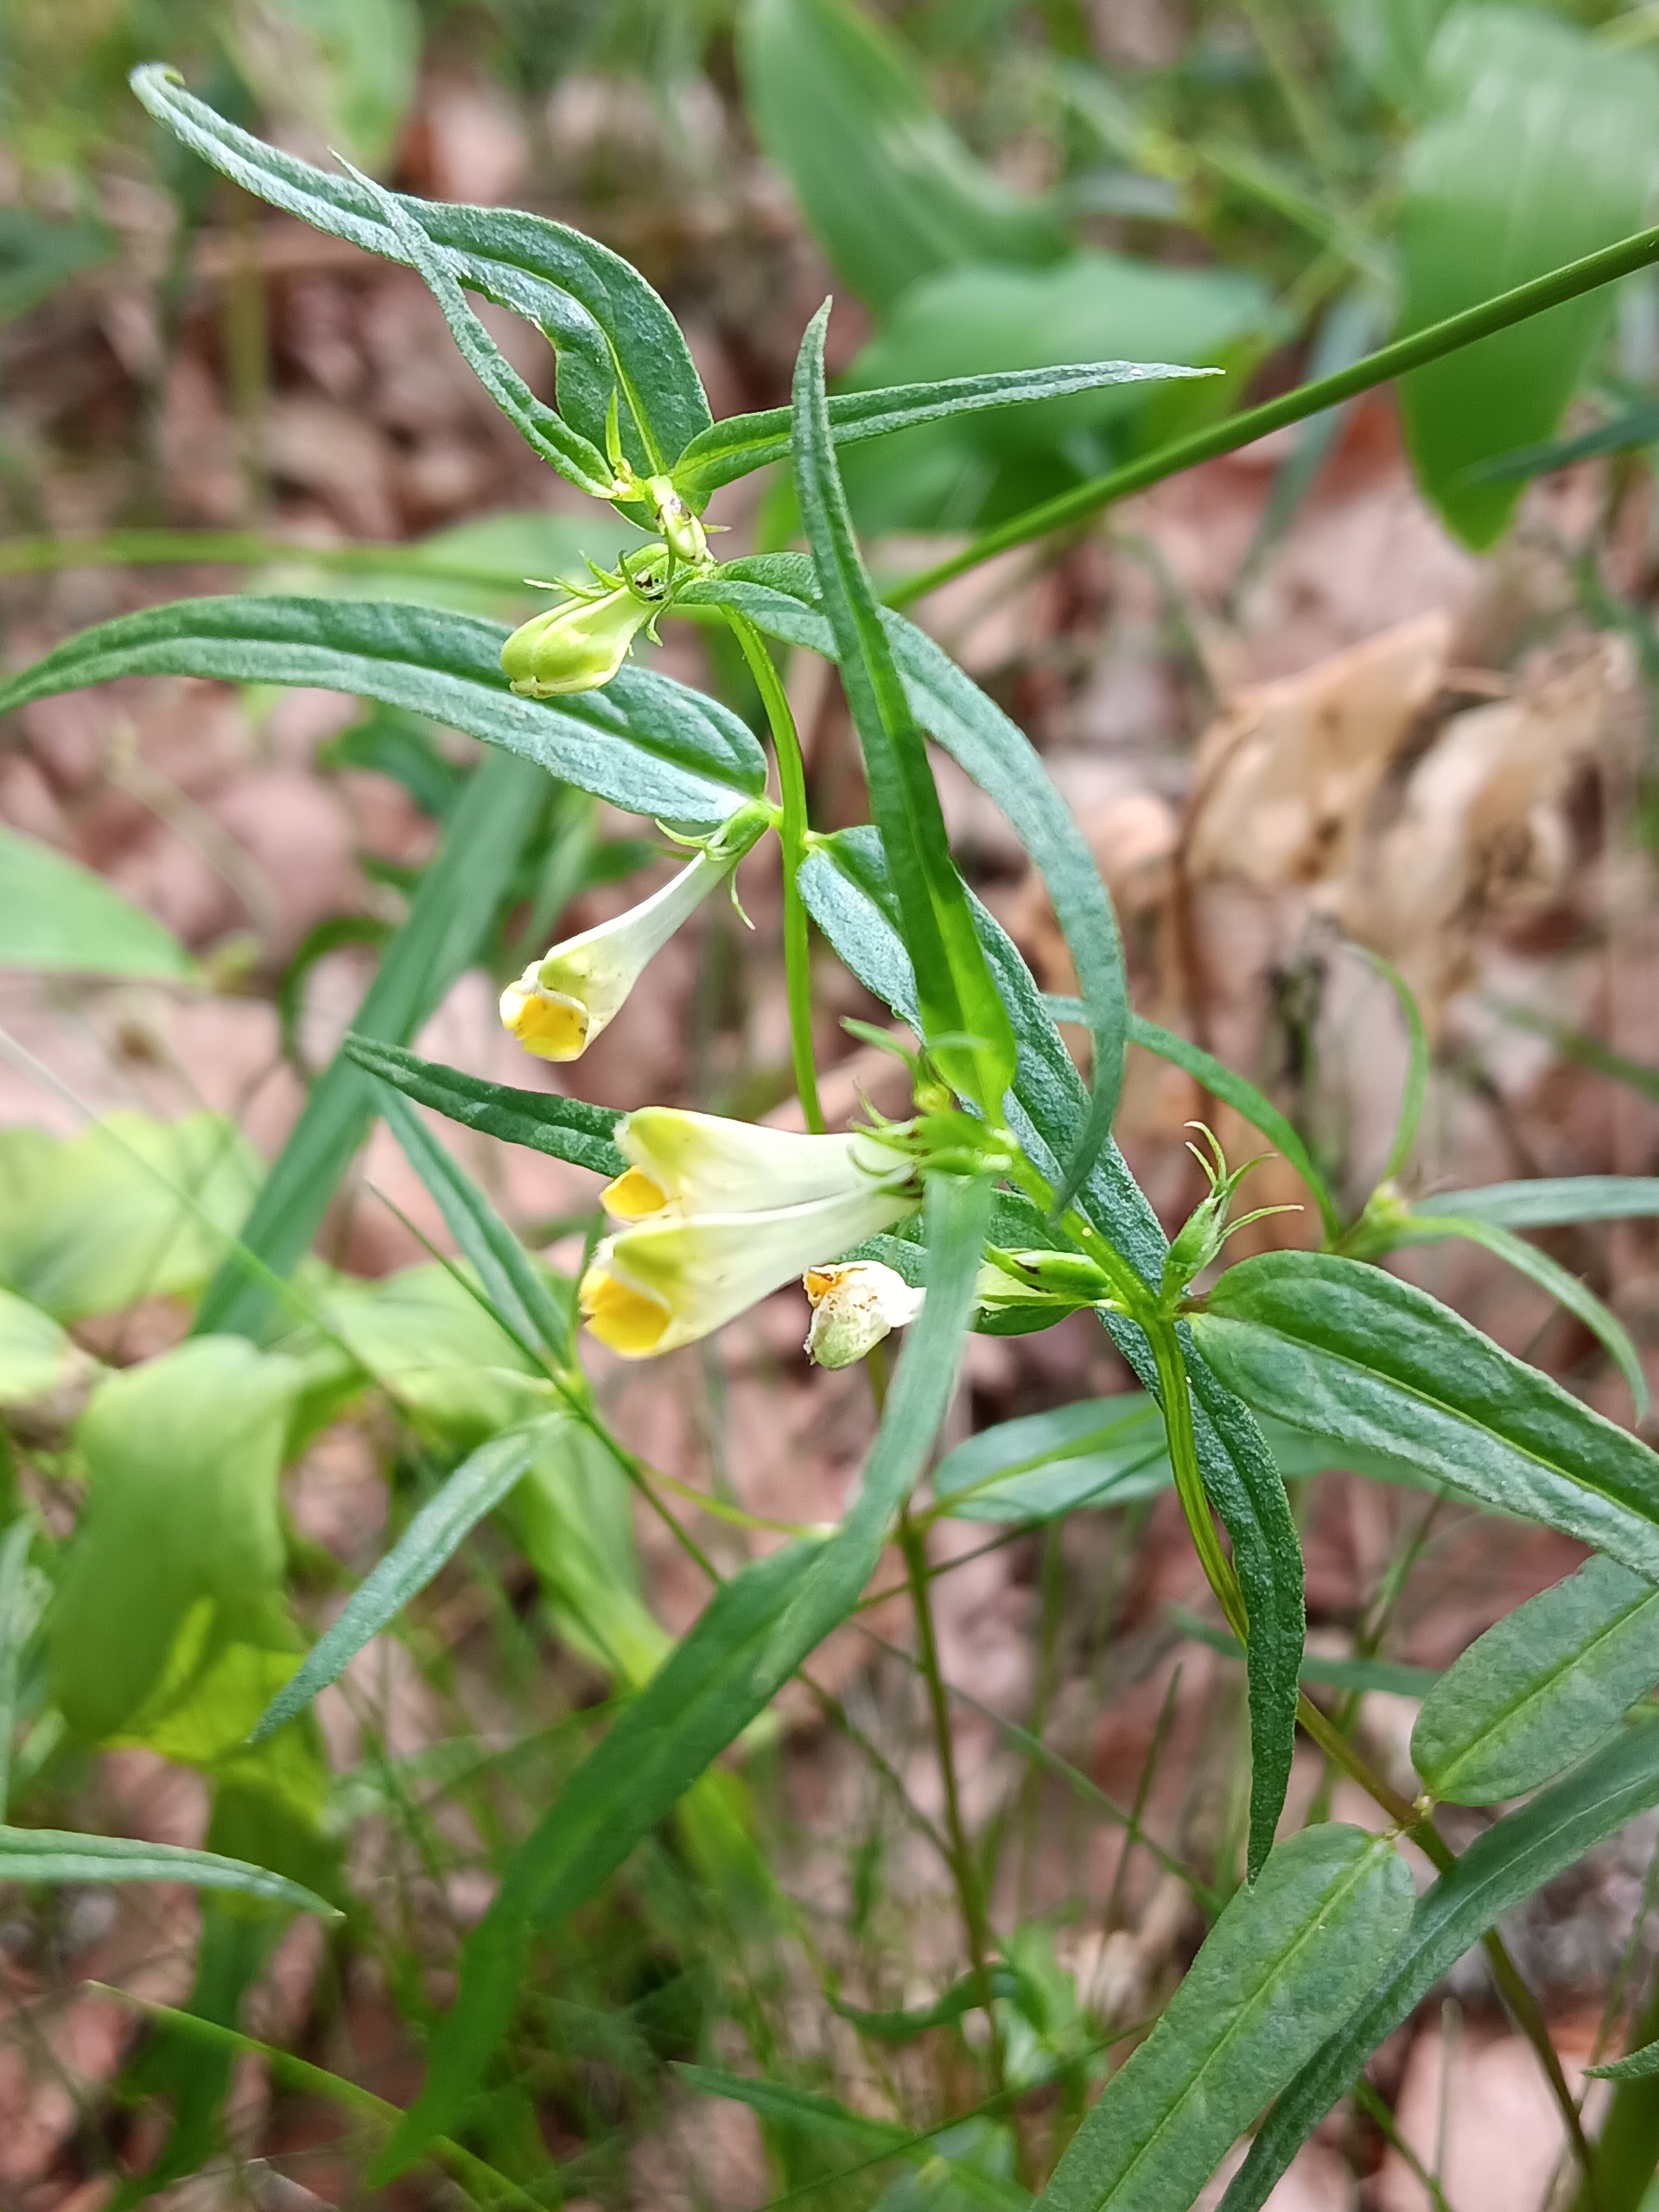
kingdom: Plantae
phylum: Tracheophyta
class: Magnoliopsida
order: Lamiales
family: Orobanchaceae
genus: Melampyrum
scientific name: Melampyrum pratense
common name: Almindelig kohvede
